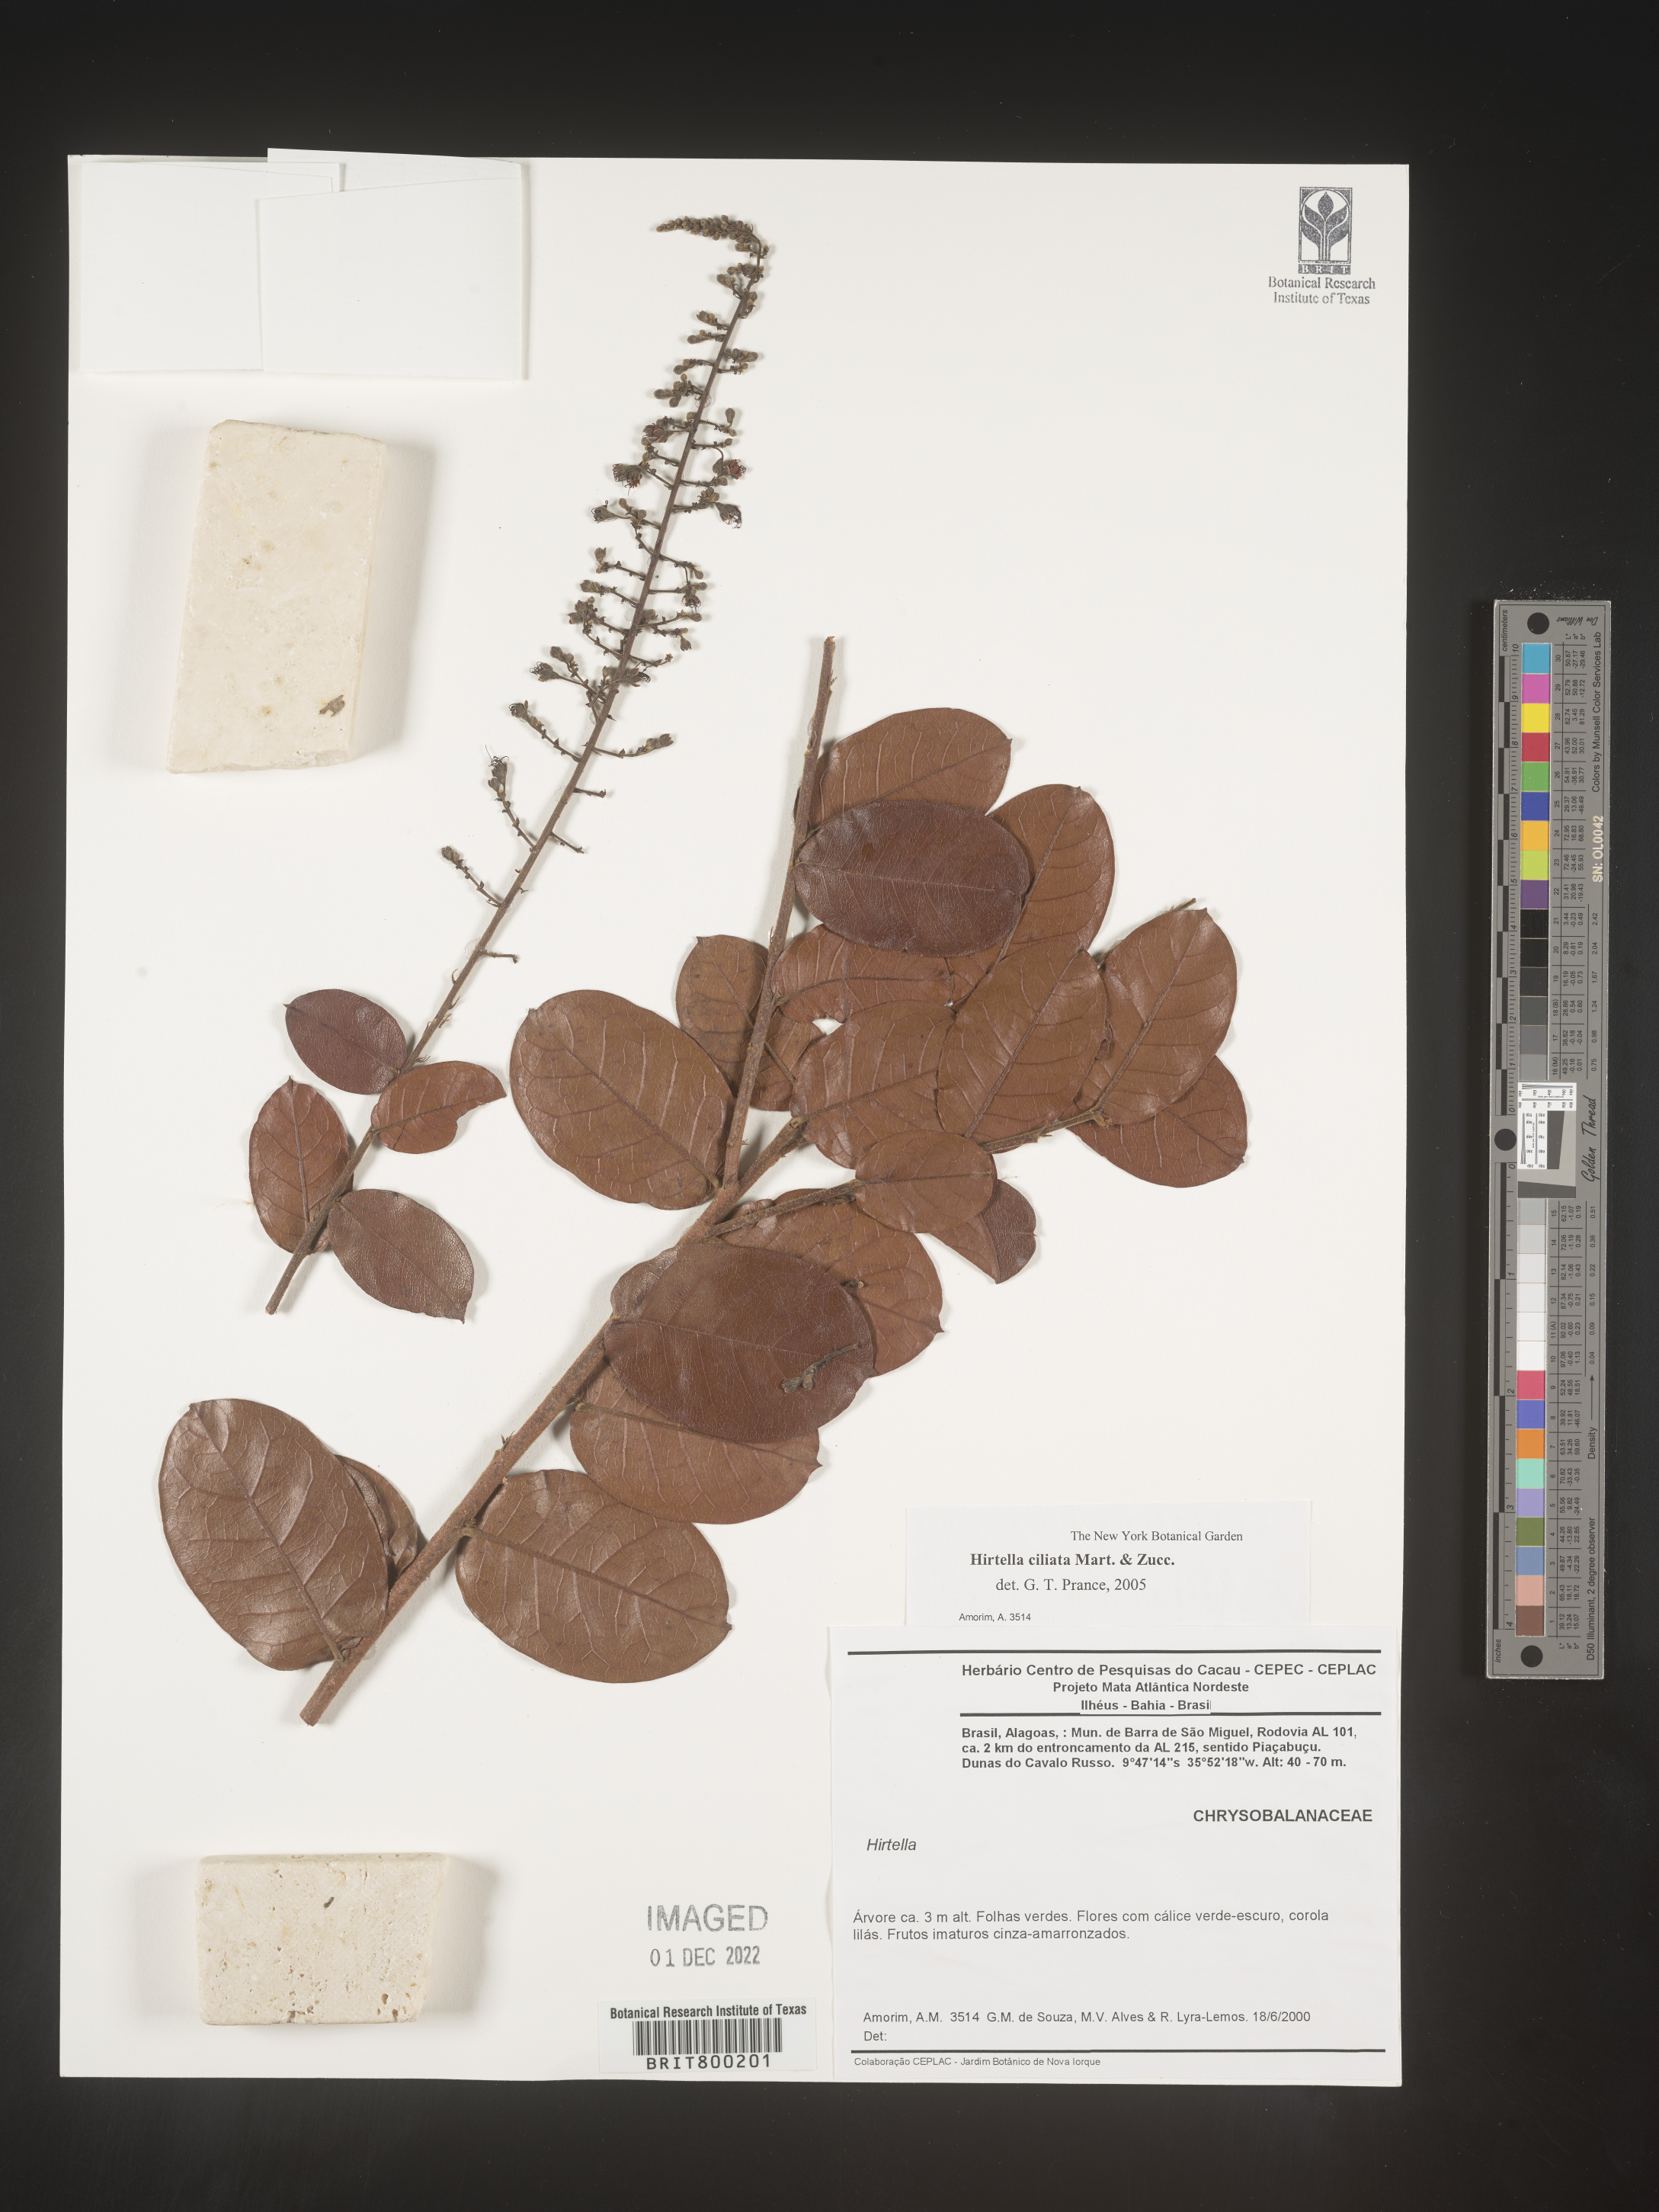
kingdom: Plantae
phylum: Tracheophyta
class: Magnoliopsida
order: Malpighiales
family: Chrysobalanaceae
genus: Hirtella
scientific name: Hirtella
